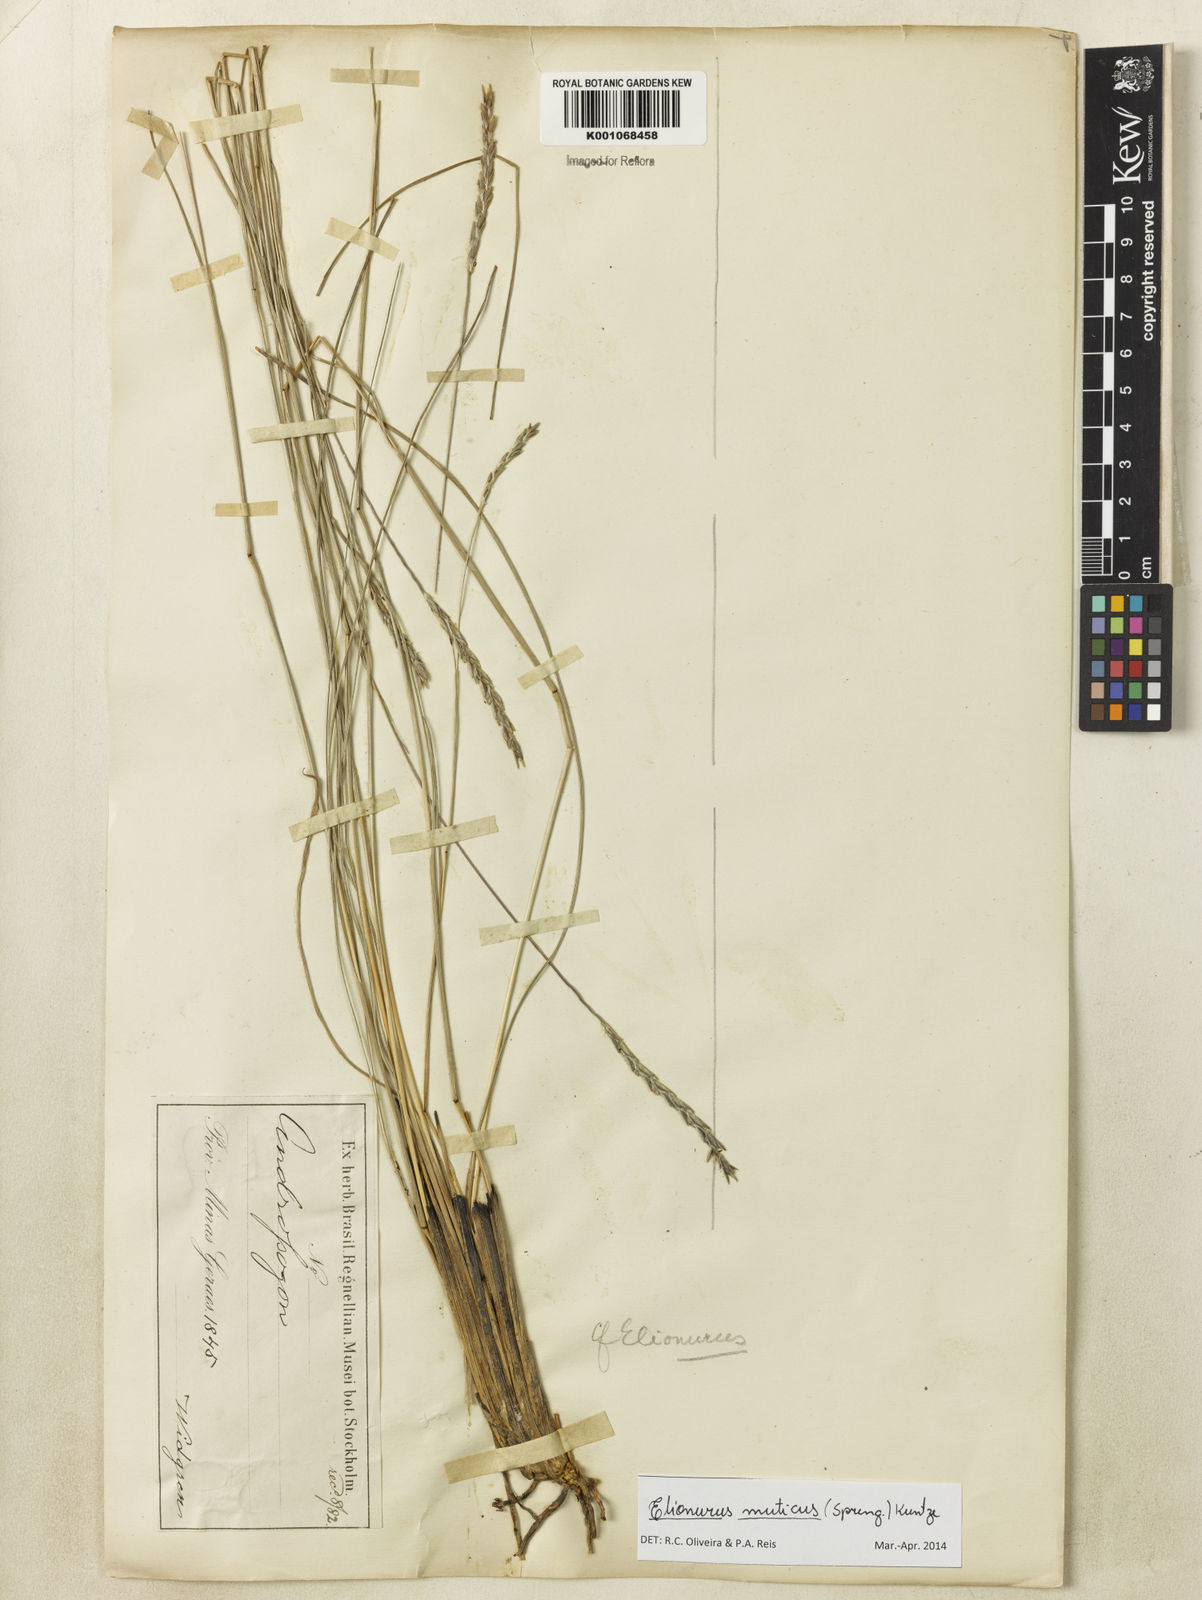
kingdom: Plantae
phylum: Tracheophyta
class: Liliopsida
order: Poales
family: Poaceae
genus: Elionurus
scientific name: Elionurus muticus
